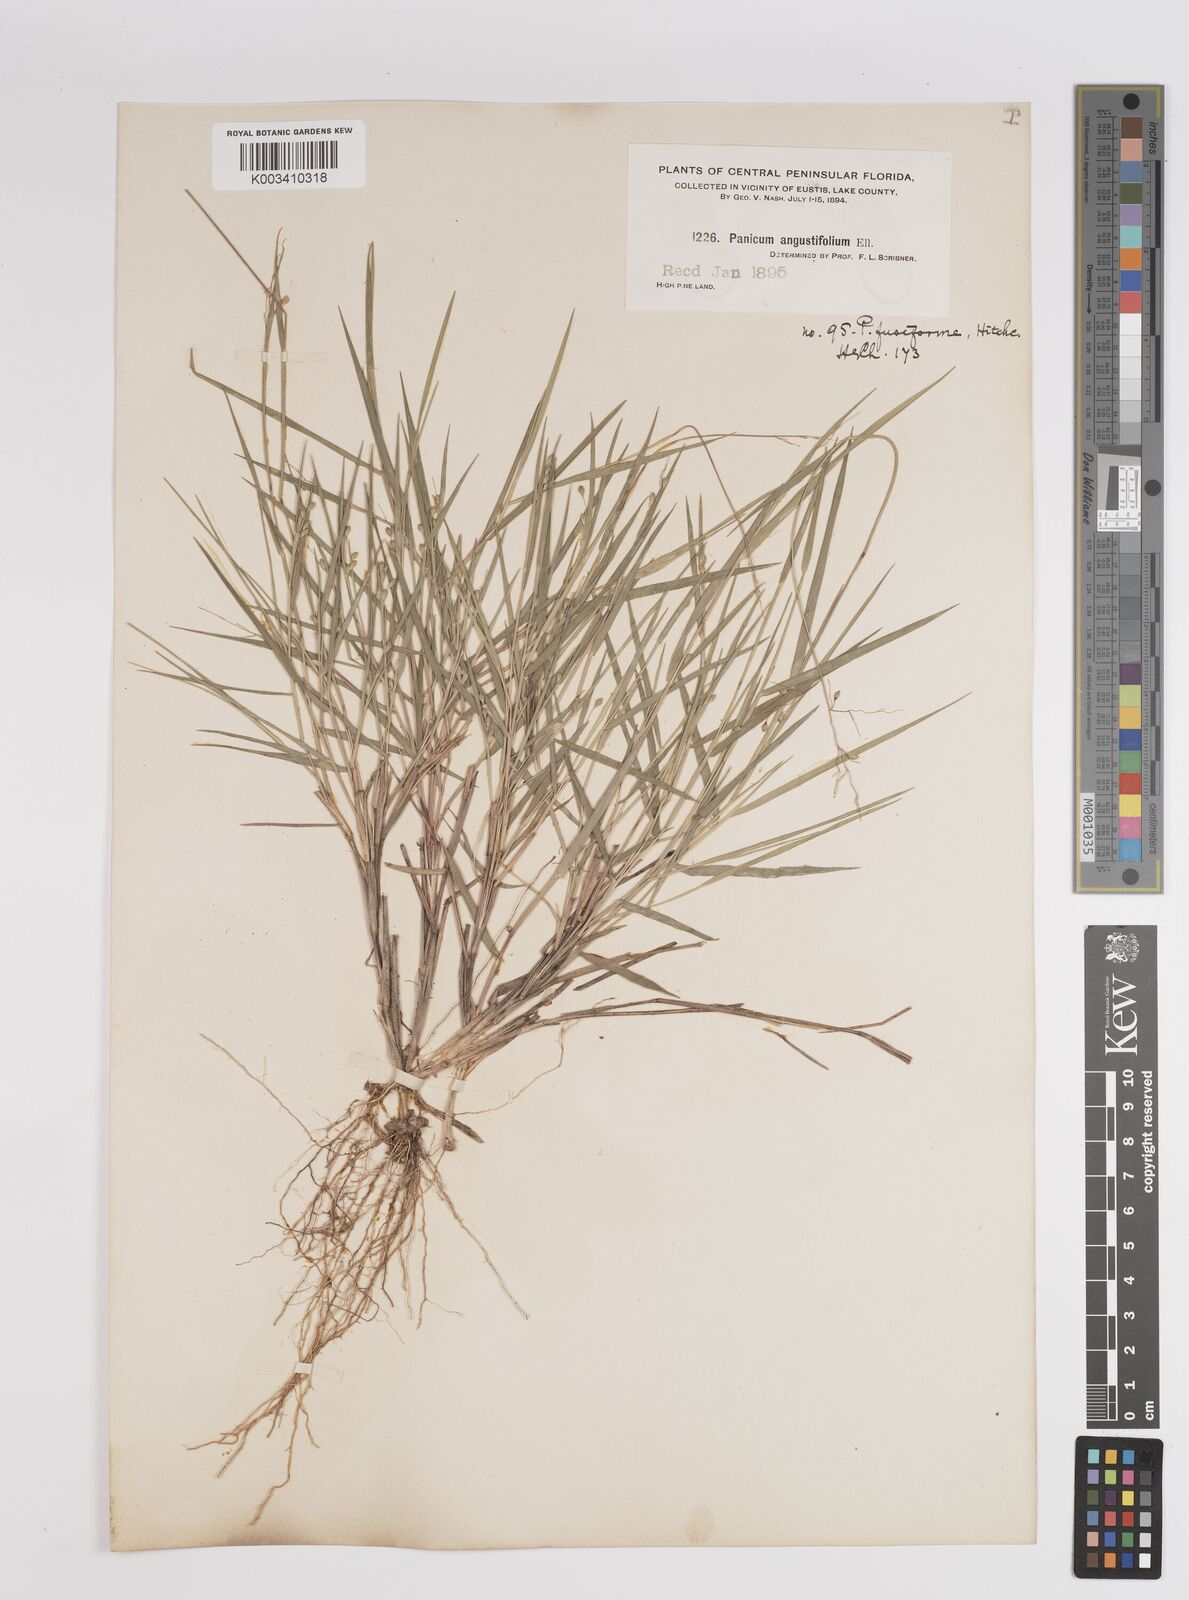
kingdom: Plantae
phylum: Tracheophyta
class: Liliopsida
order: Poales
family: Poaceae
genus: Dichanthelium
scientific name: Dichanthelium aciculare
